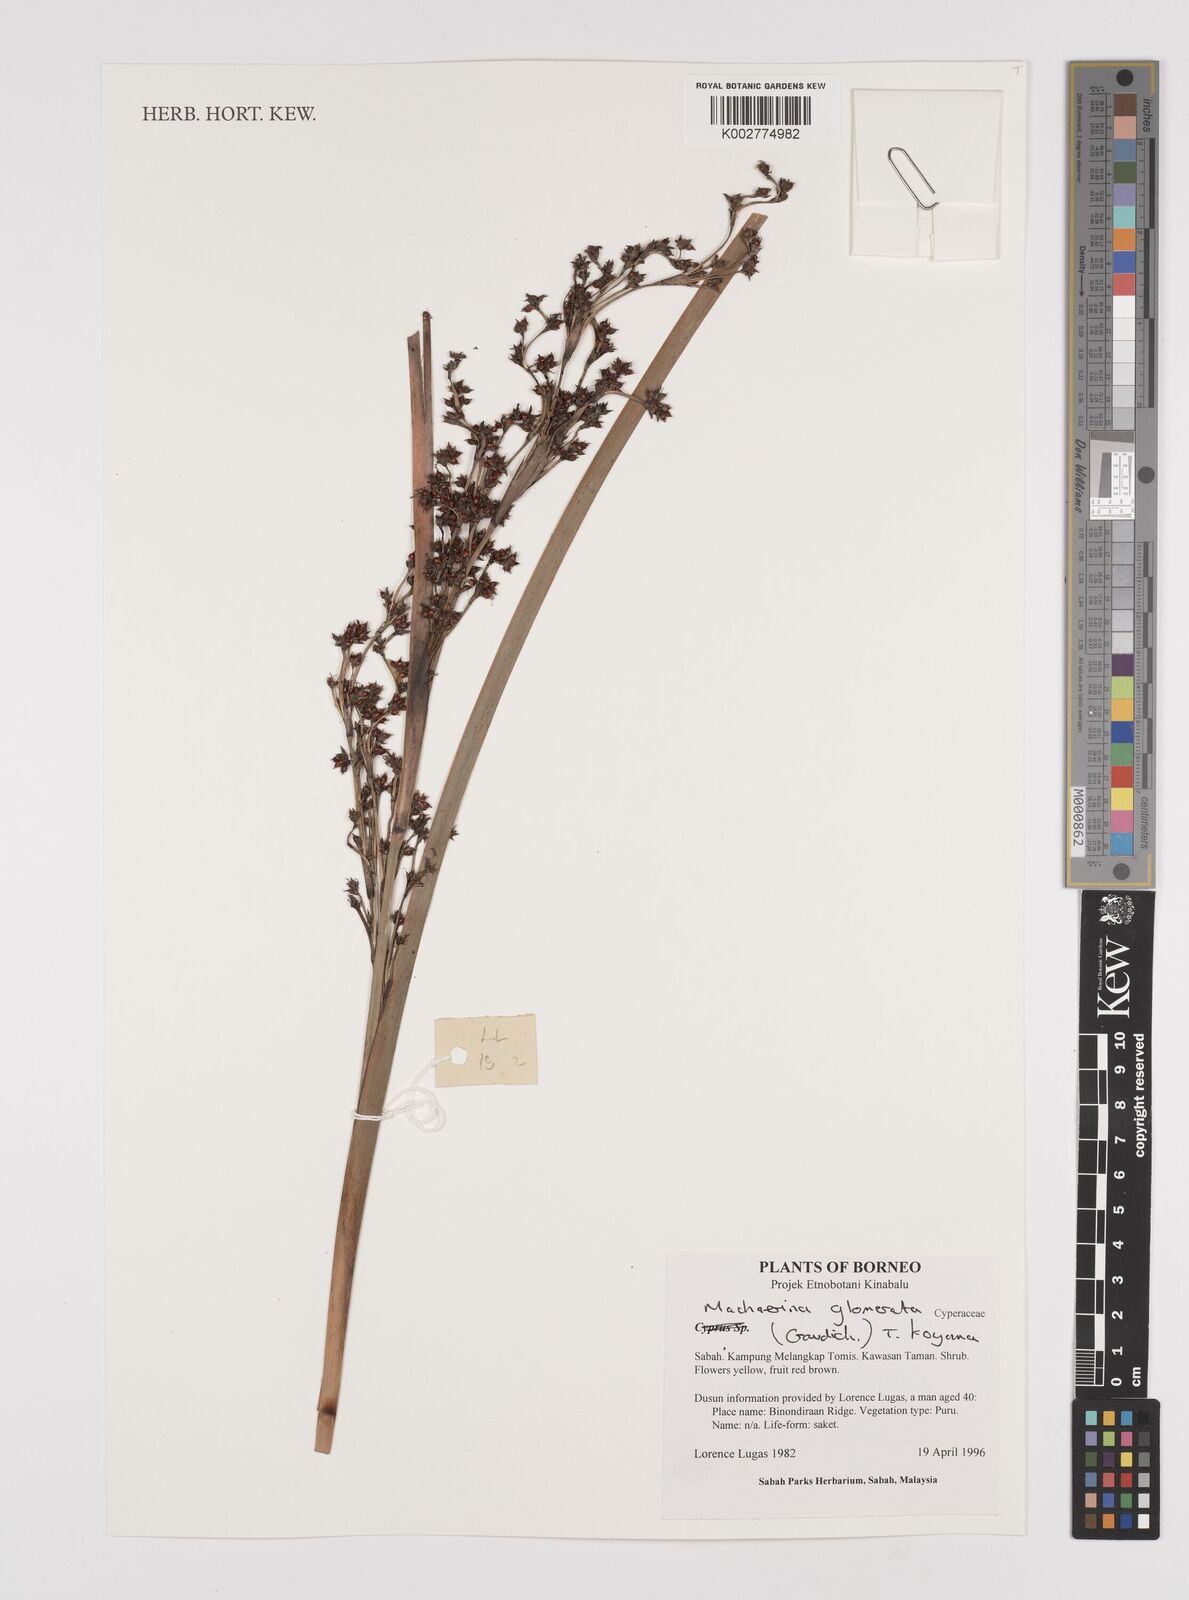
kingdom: Plantae
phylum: Tracheophyta
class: Liliopsida
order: Poales
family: Cyperaceae
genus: Machaerina
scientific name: Machaerina glomerata
